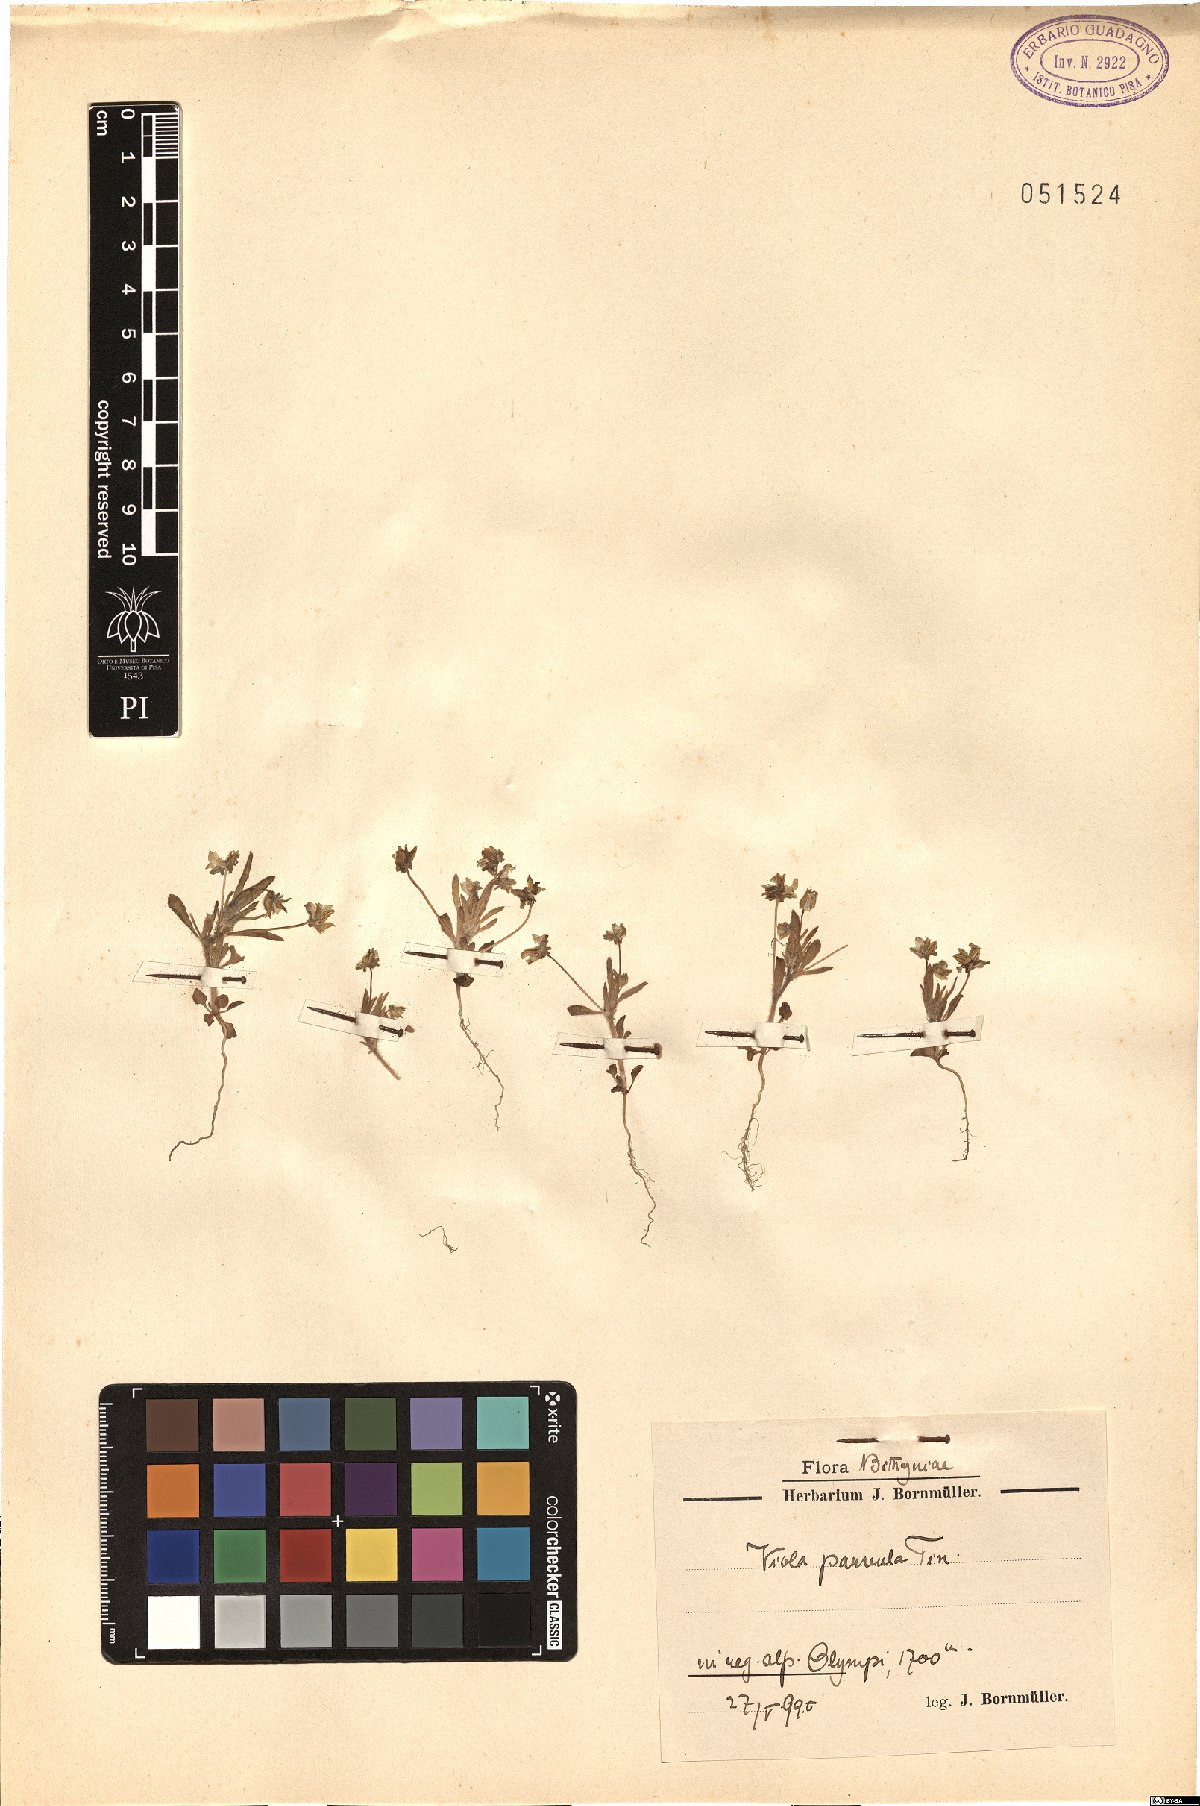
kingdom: Plantae
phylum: Tracheophyta
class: Magnoliopsida
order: Malpighiales
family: Violaceae
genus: Viola
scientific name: Viola parvula
